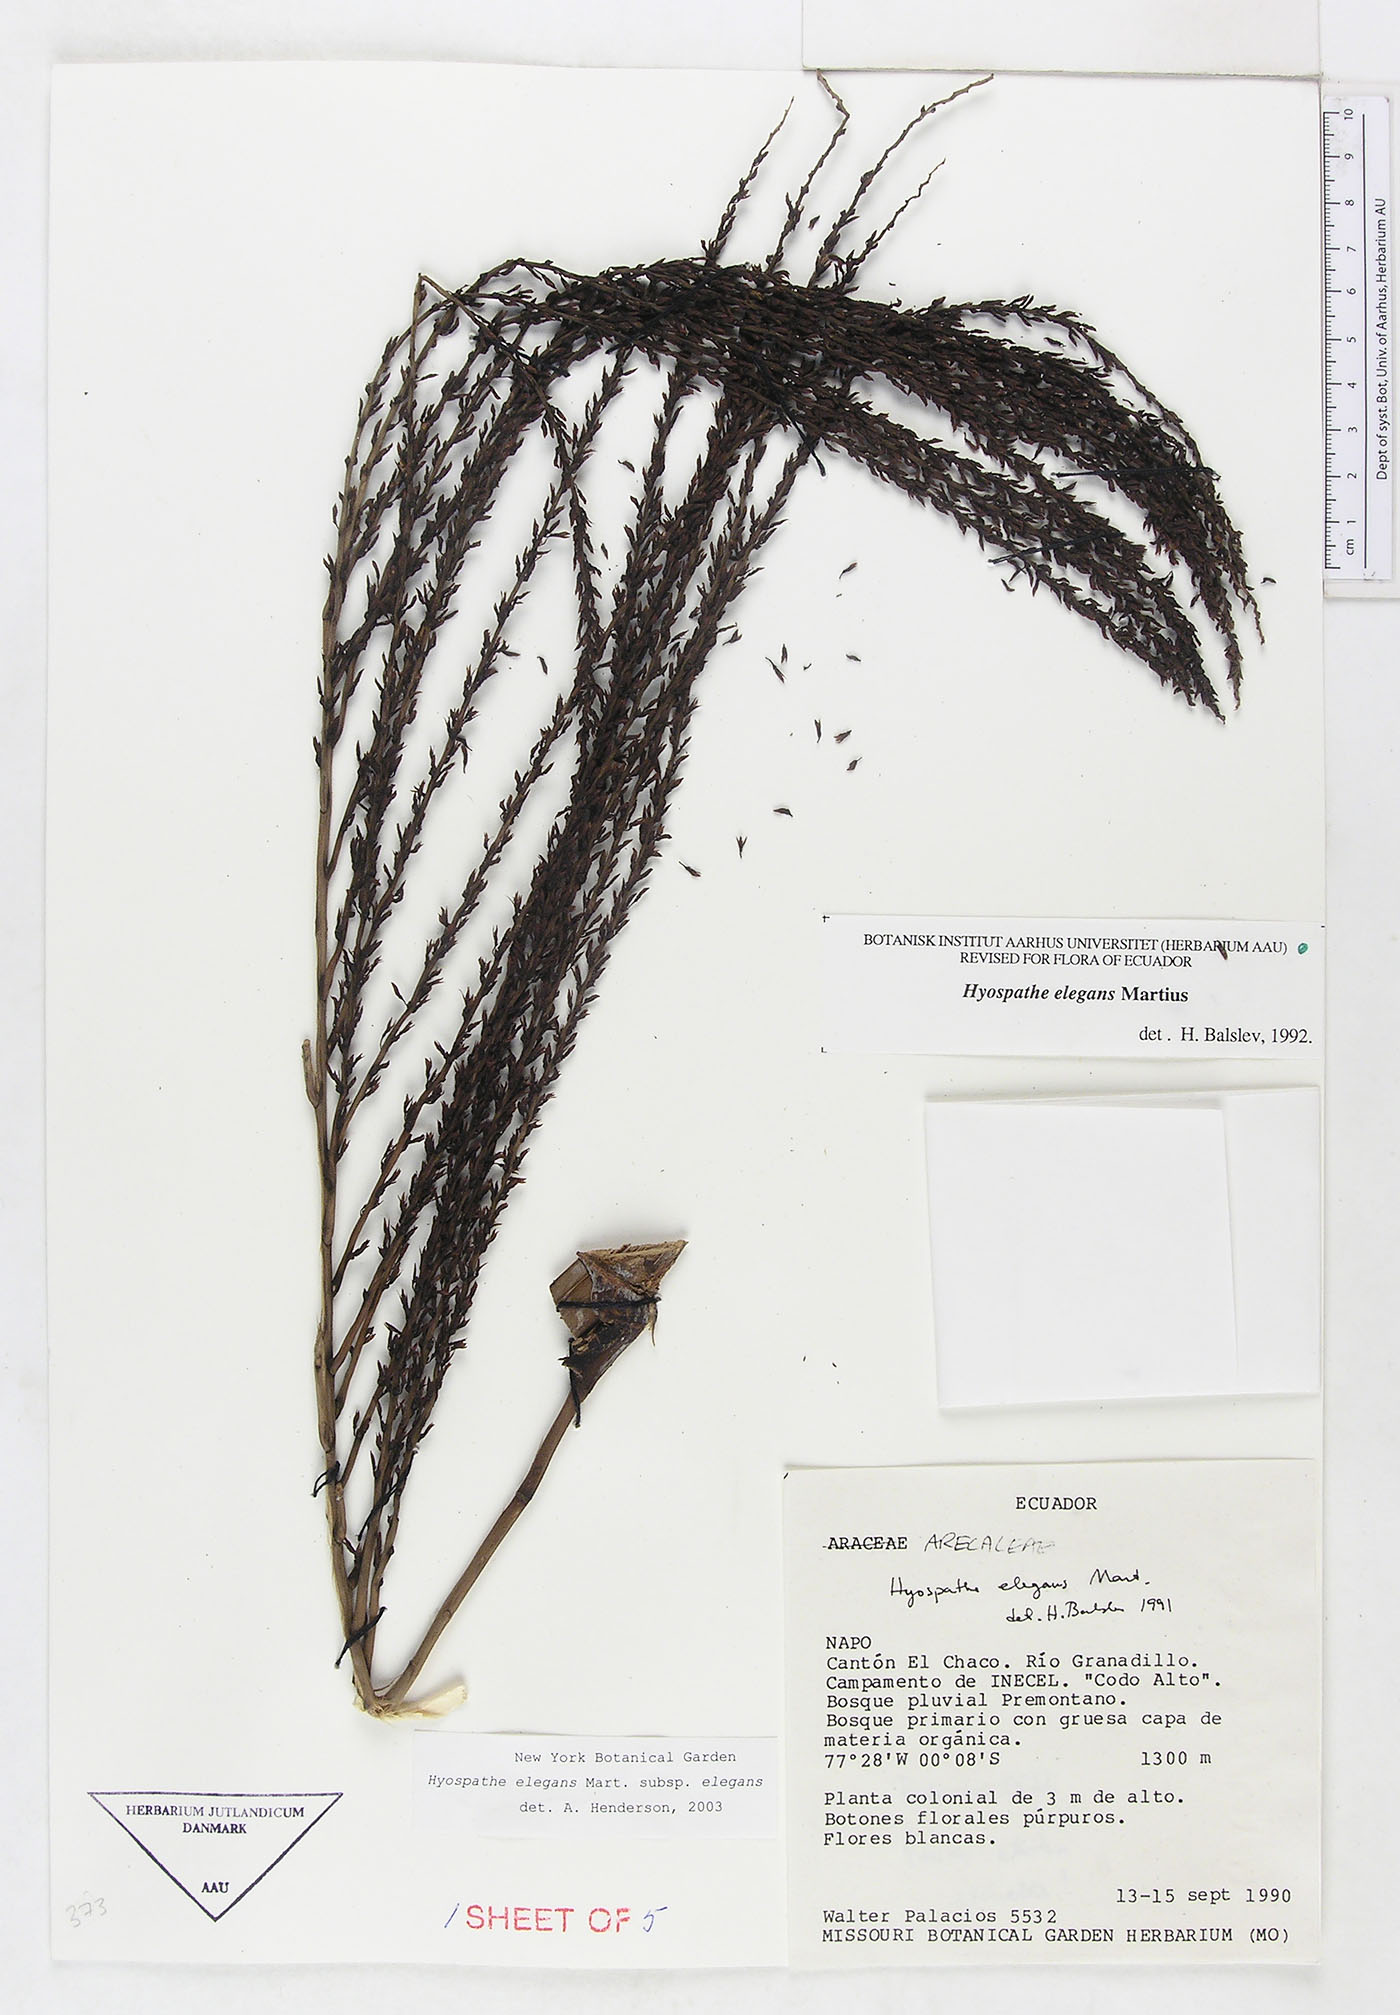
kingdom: Plantae
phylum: Tracheophyta
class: Liliopsida
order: Arecales
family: Arecaceae
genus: Hyospathe
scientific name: Hyospathe elegans
